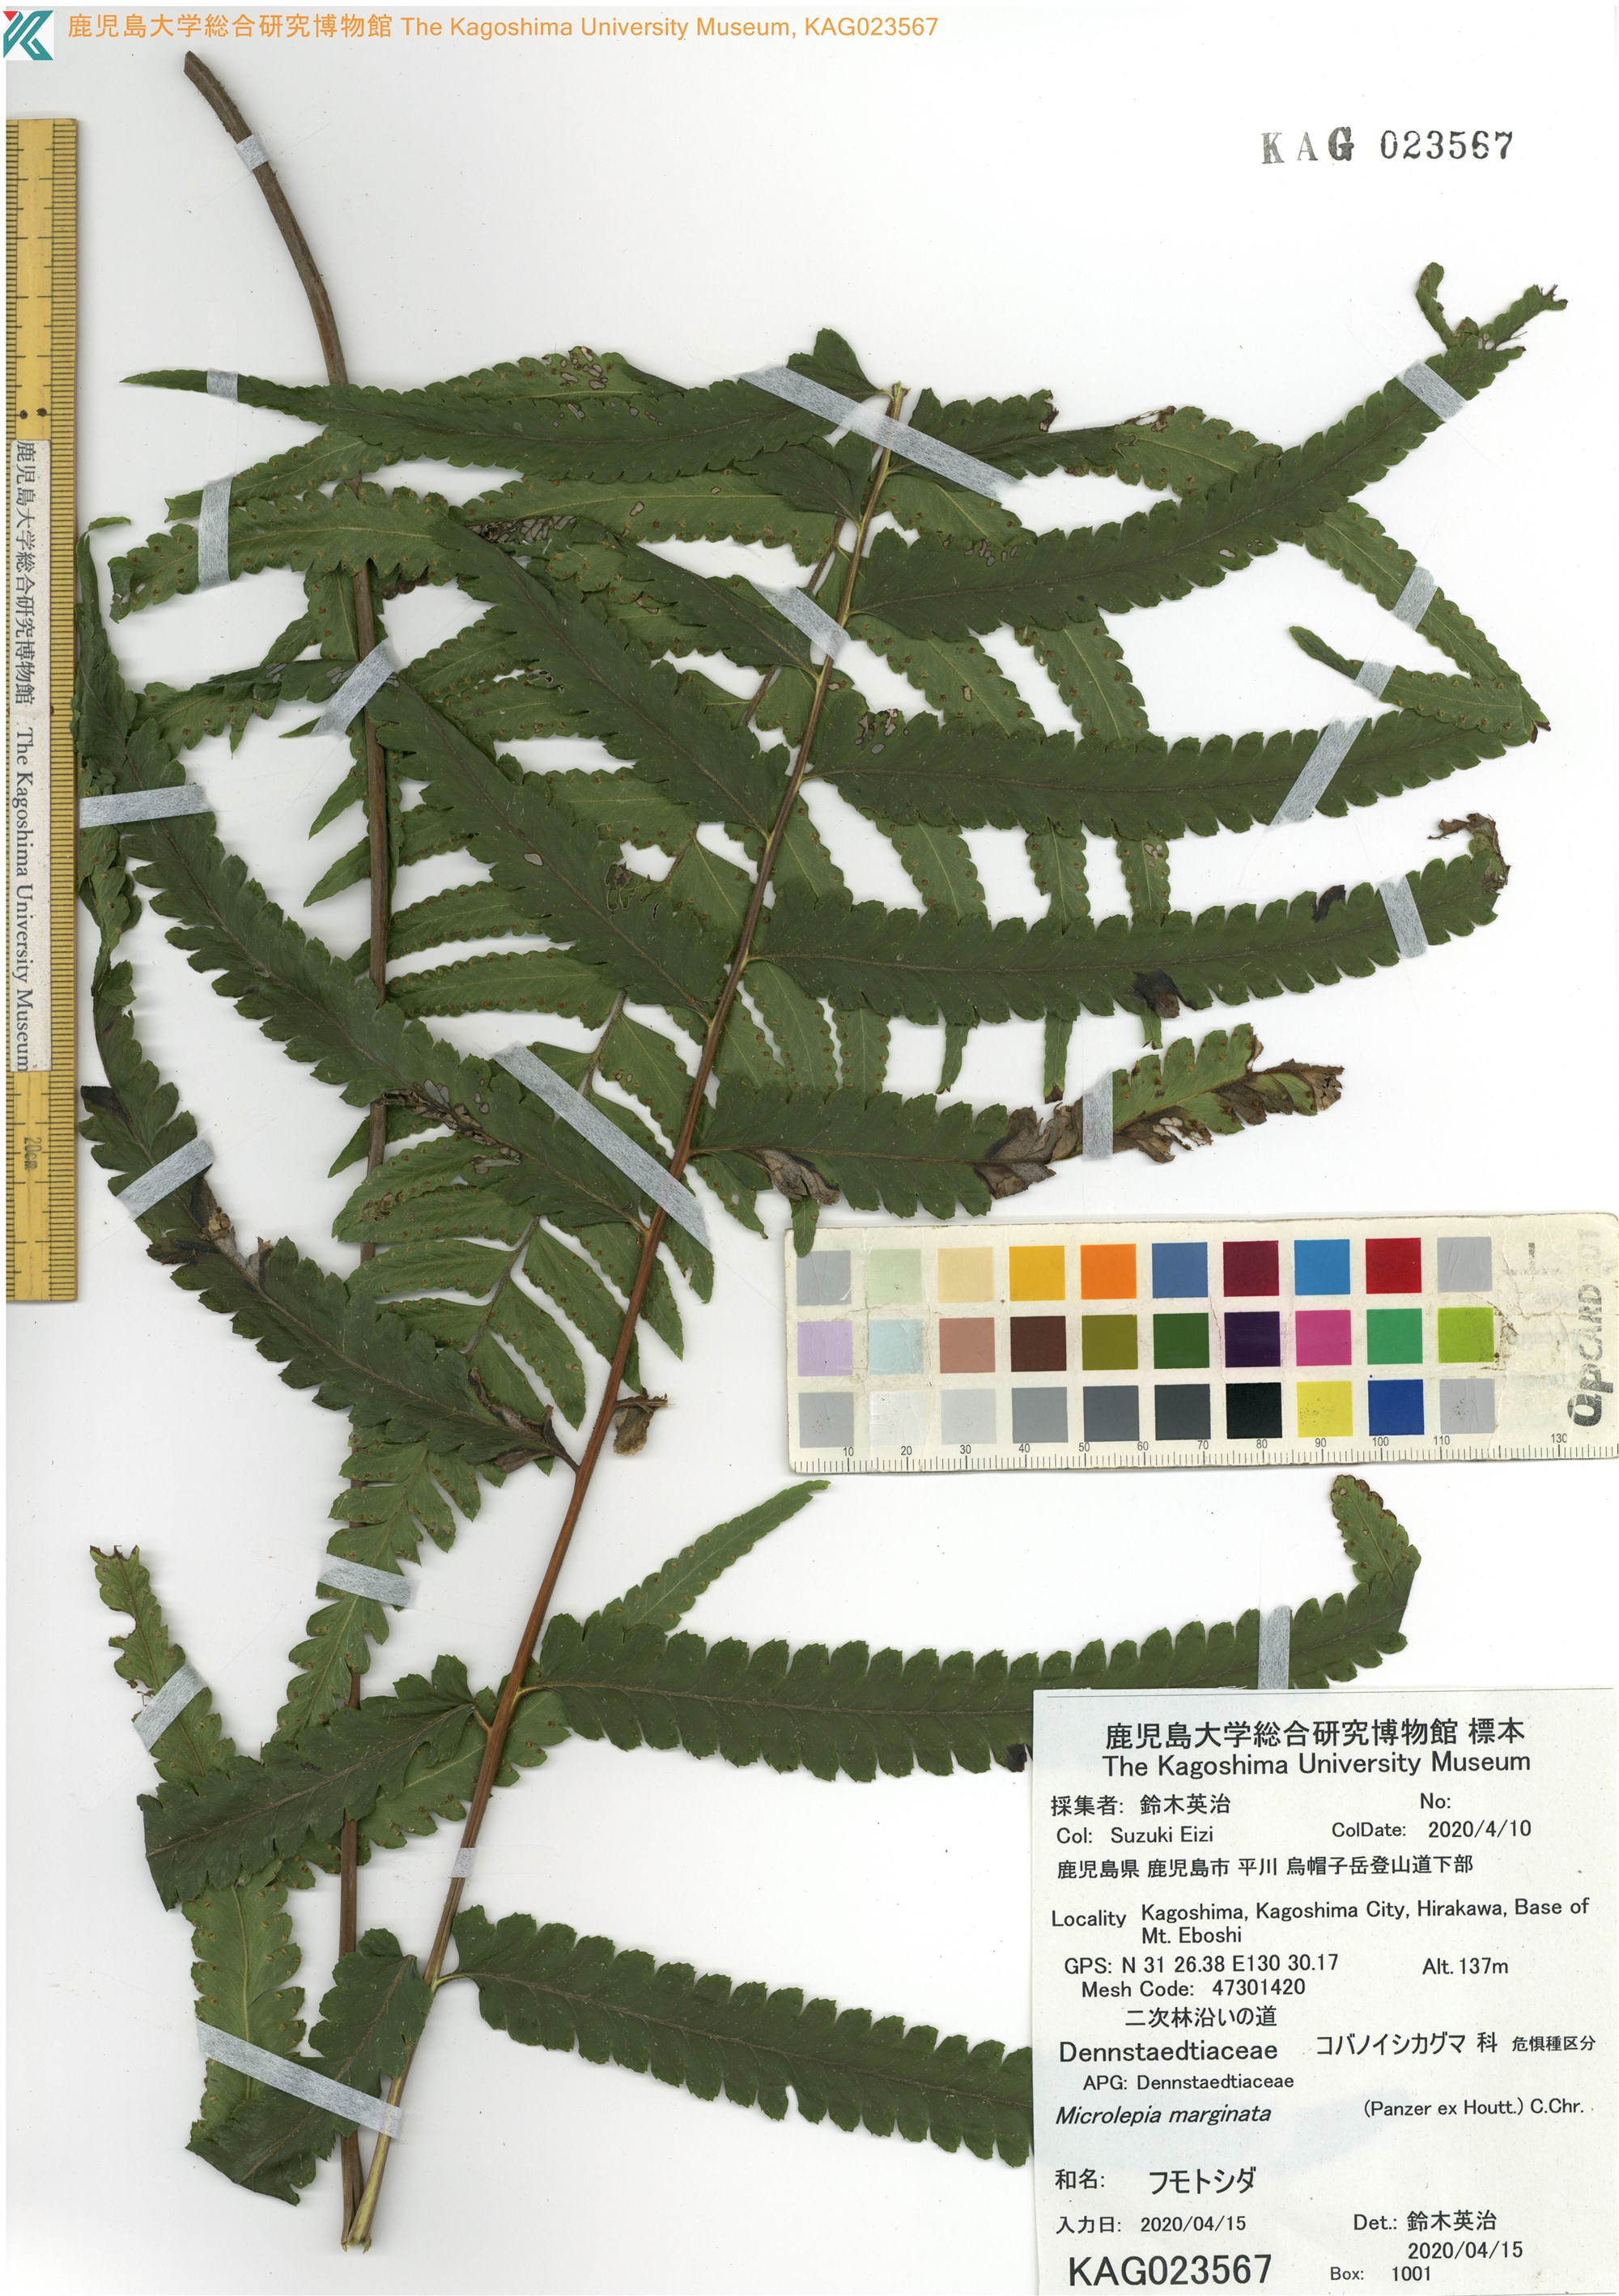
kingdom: Plantae
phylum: Tracheophyta
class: Polypodiopsida
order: Polypodiales
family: Dennstaedtiaceae
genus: Microlepia
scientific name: Microlepia marginata
